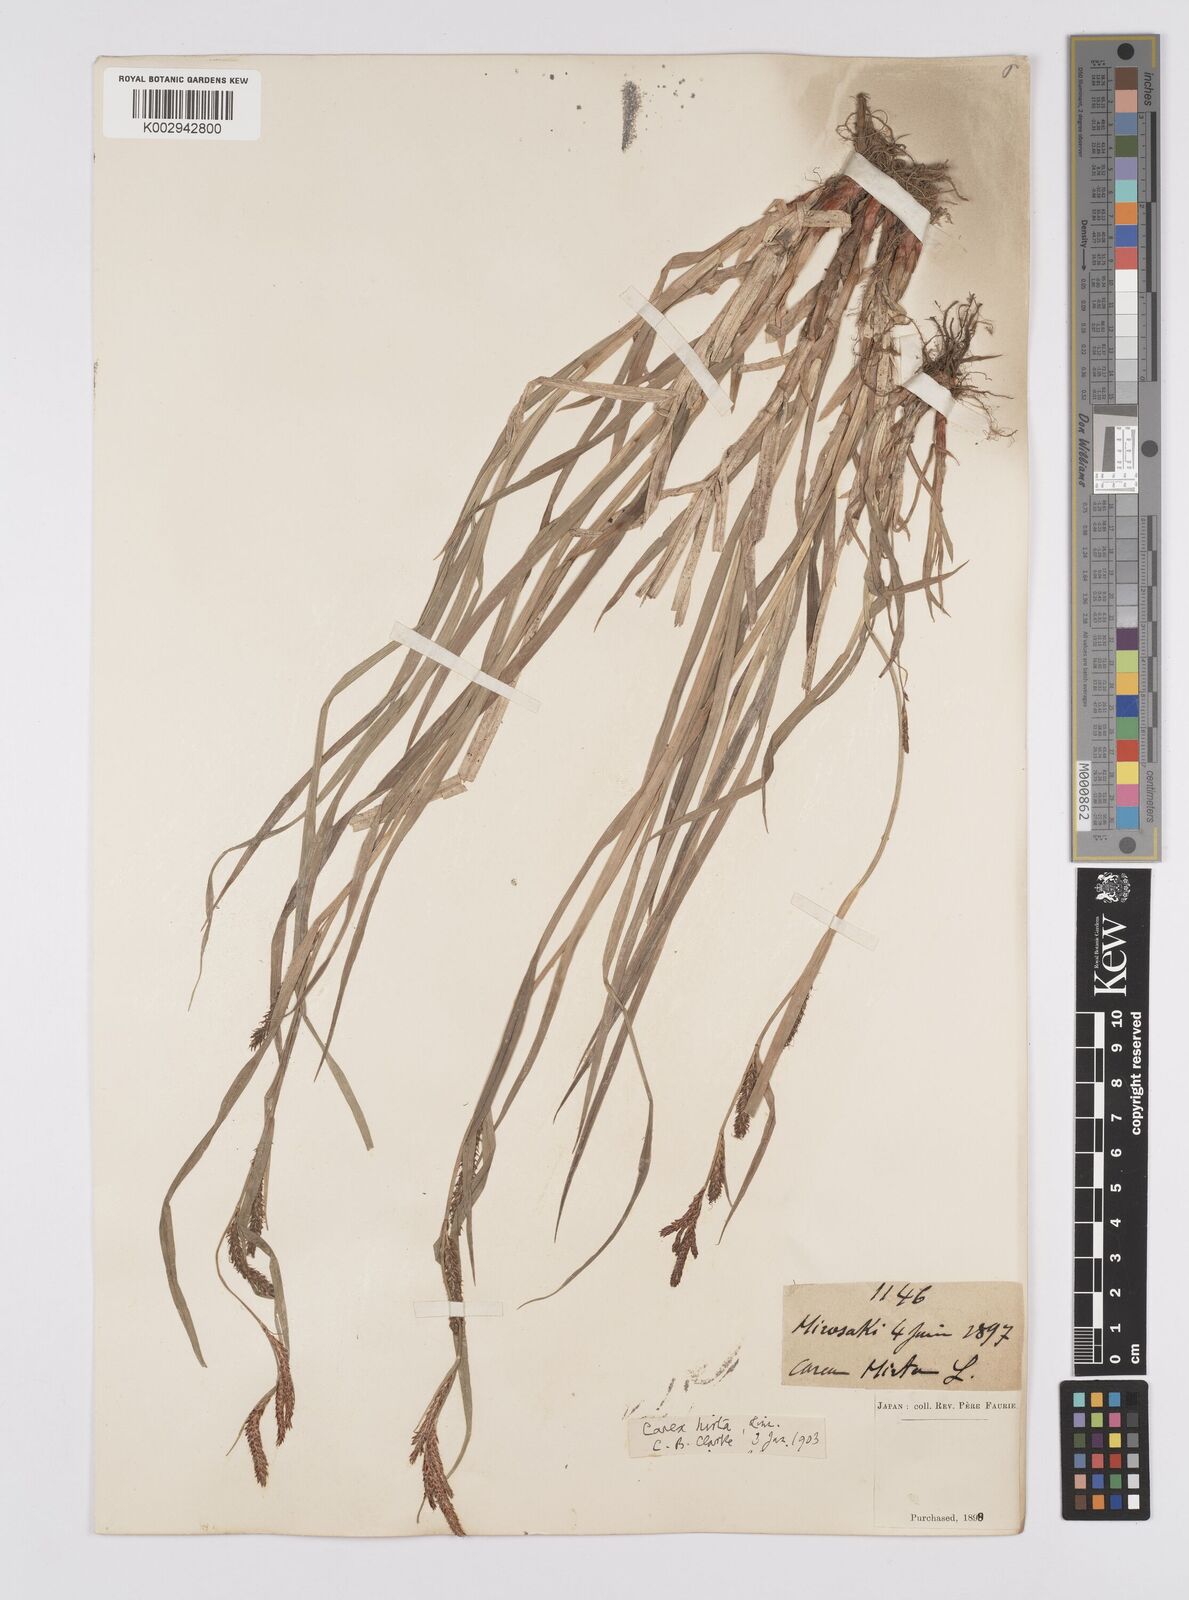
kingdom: Plantae
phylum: Tracheophyta
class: Liliopsida
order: Poales
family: Cyperaceae
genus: Carex
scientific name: Carex fedia
